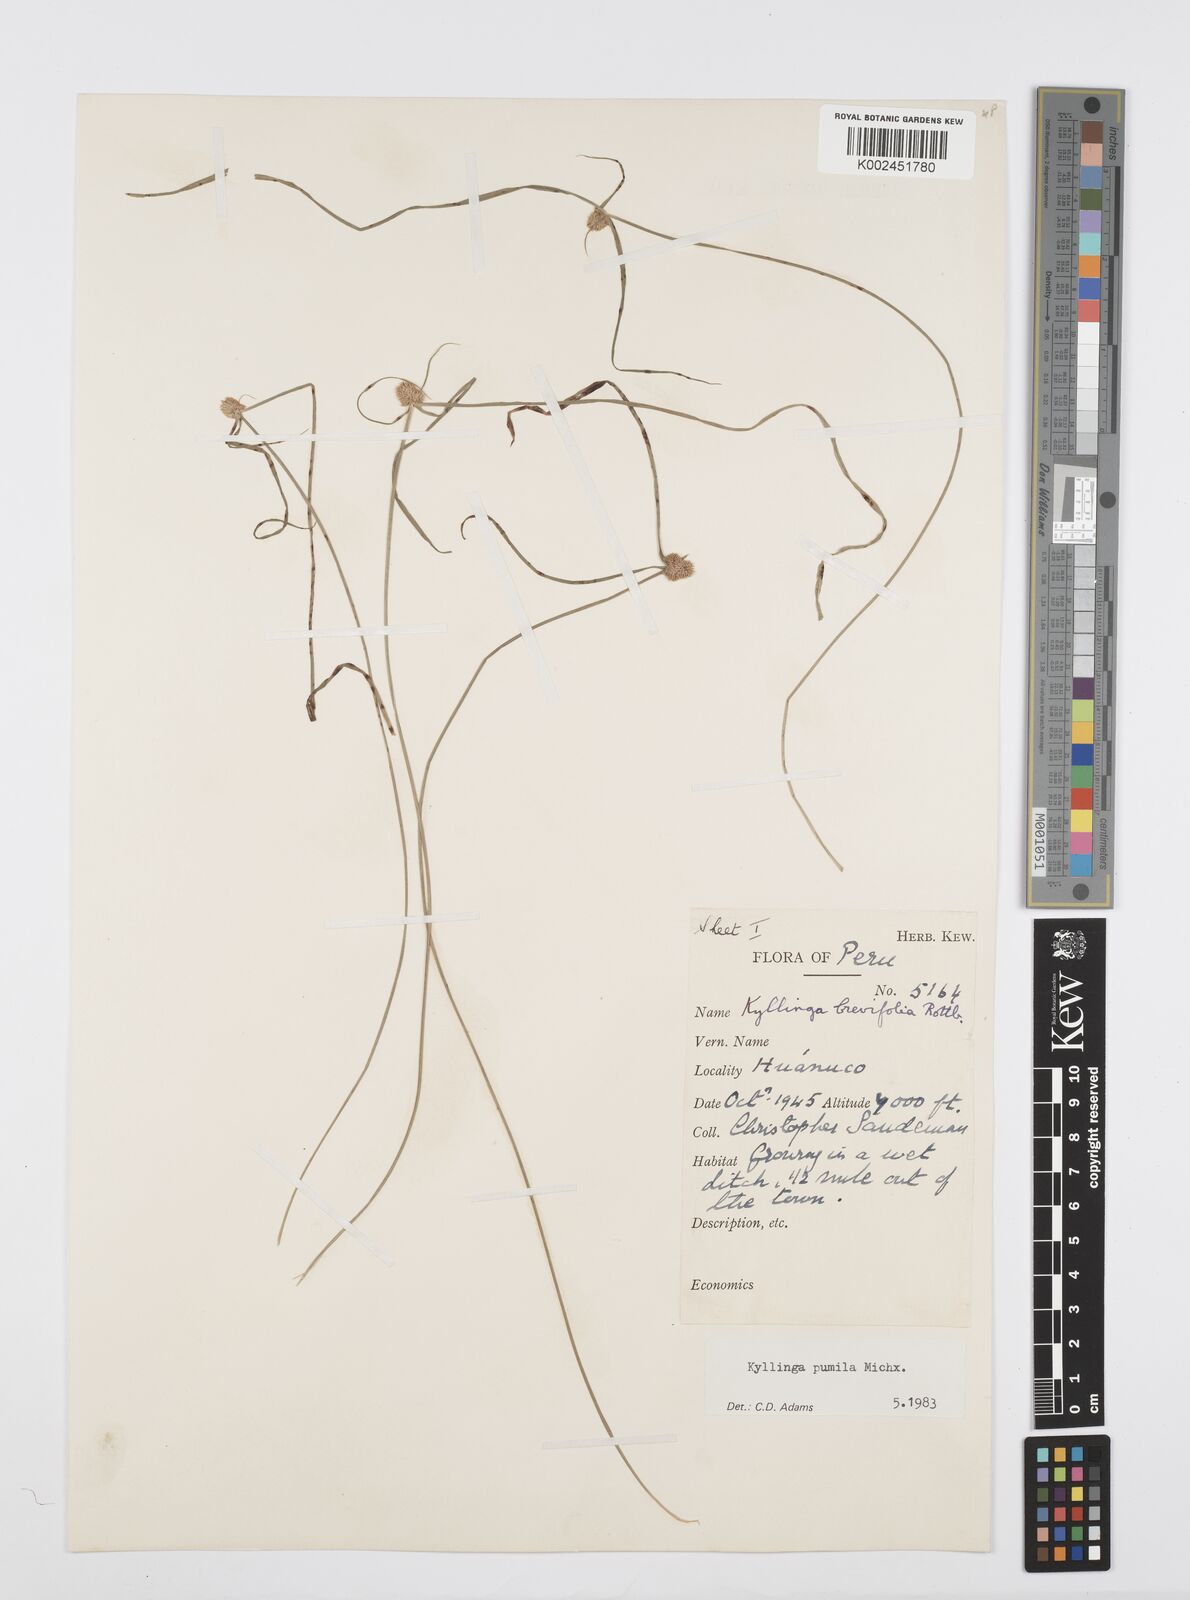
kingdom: Plantae
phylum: Tracheophyta
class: Liliopsida
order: Poales
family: Cyperaceae
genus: Cyperus
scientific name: Cyperus
